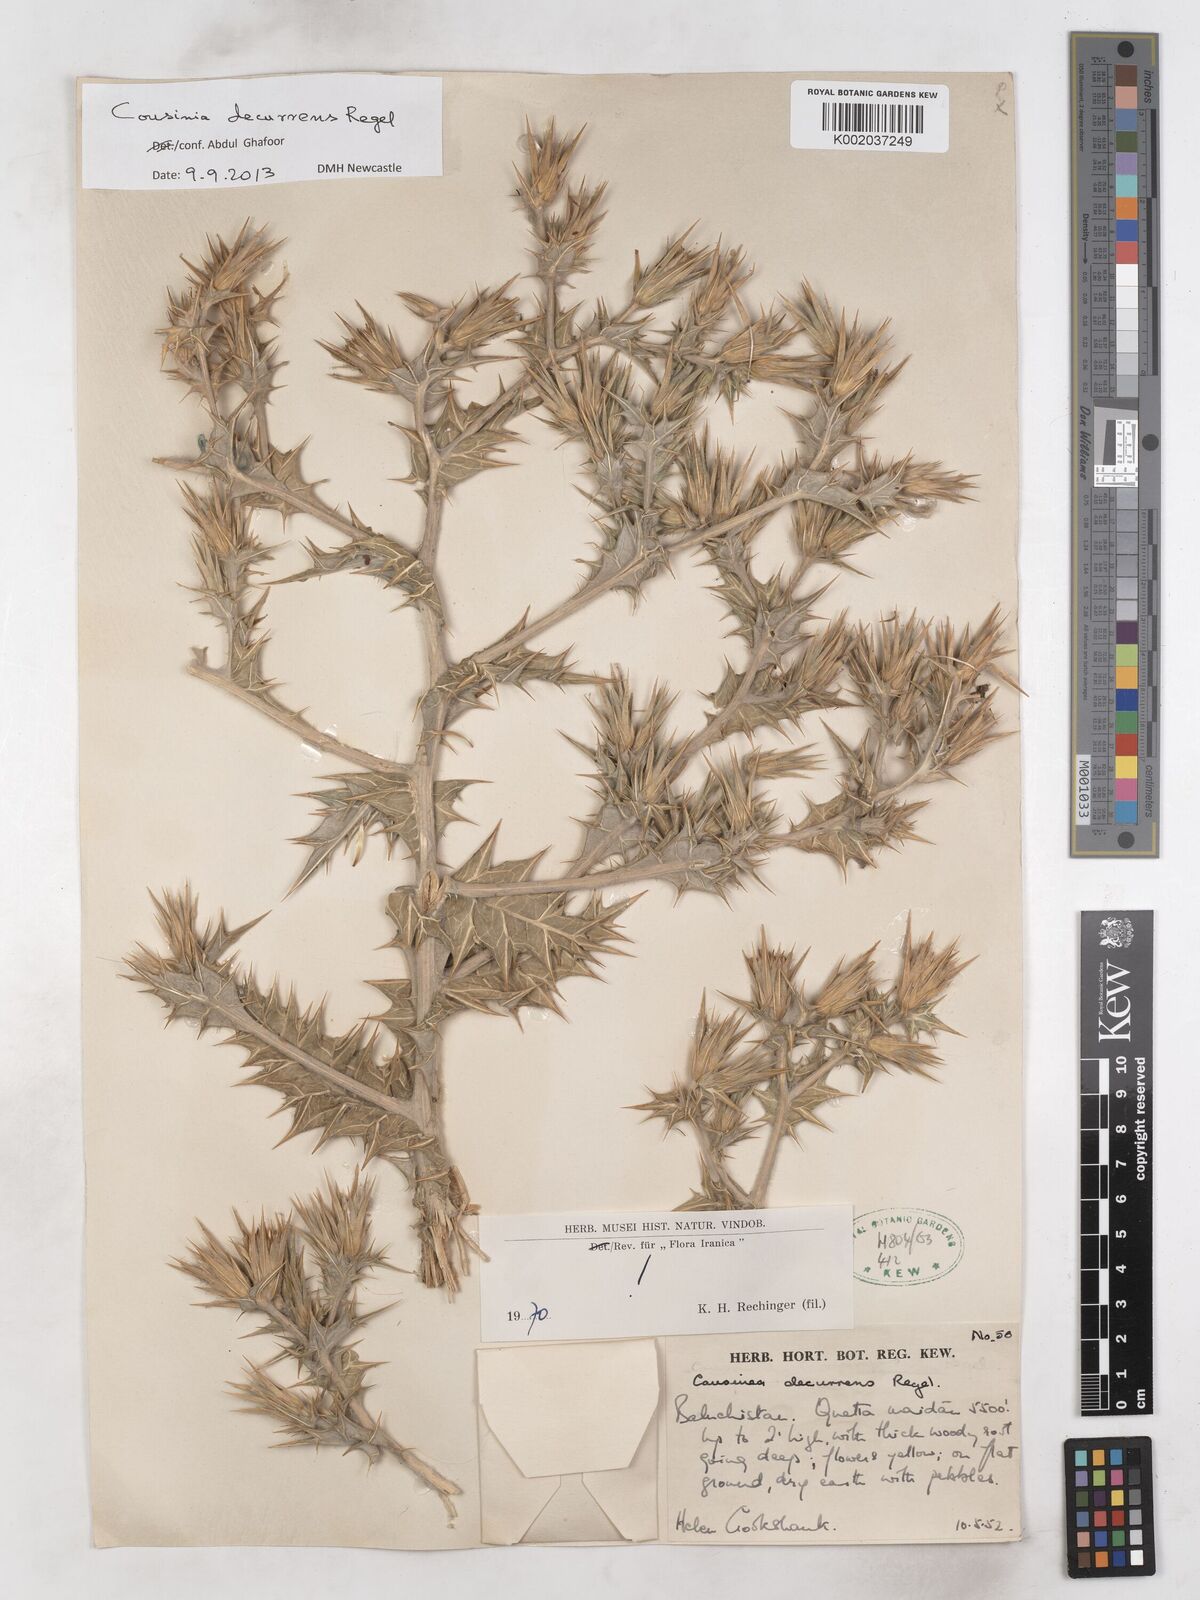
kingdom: Plantae
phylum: Tracheophyta
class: Magnoliopsida
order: Asterales
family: Asteraceae
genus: Cousinia
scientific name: Cousinia decurrens
